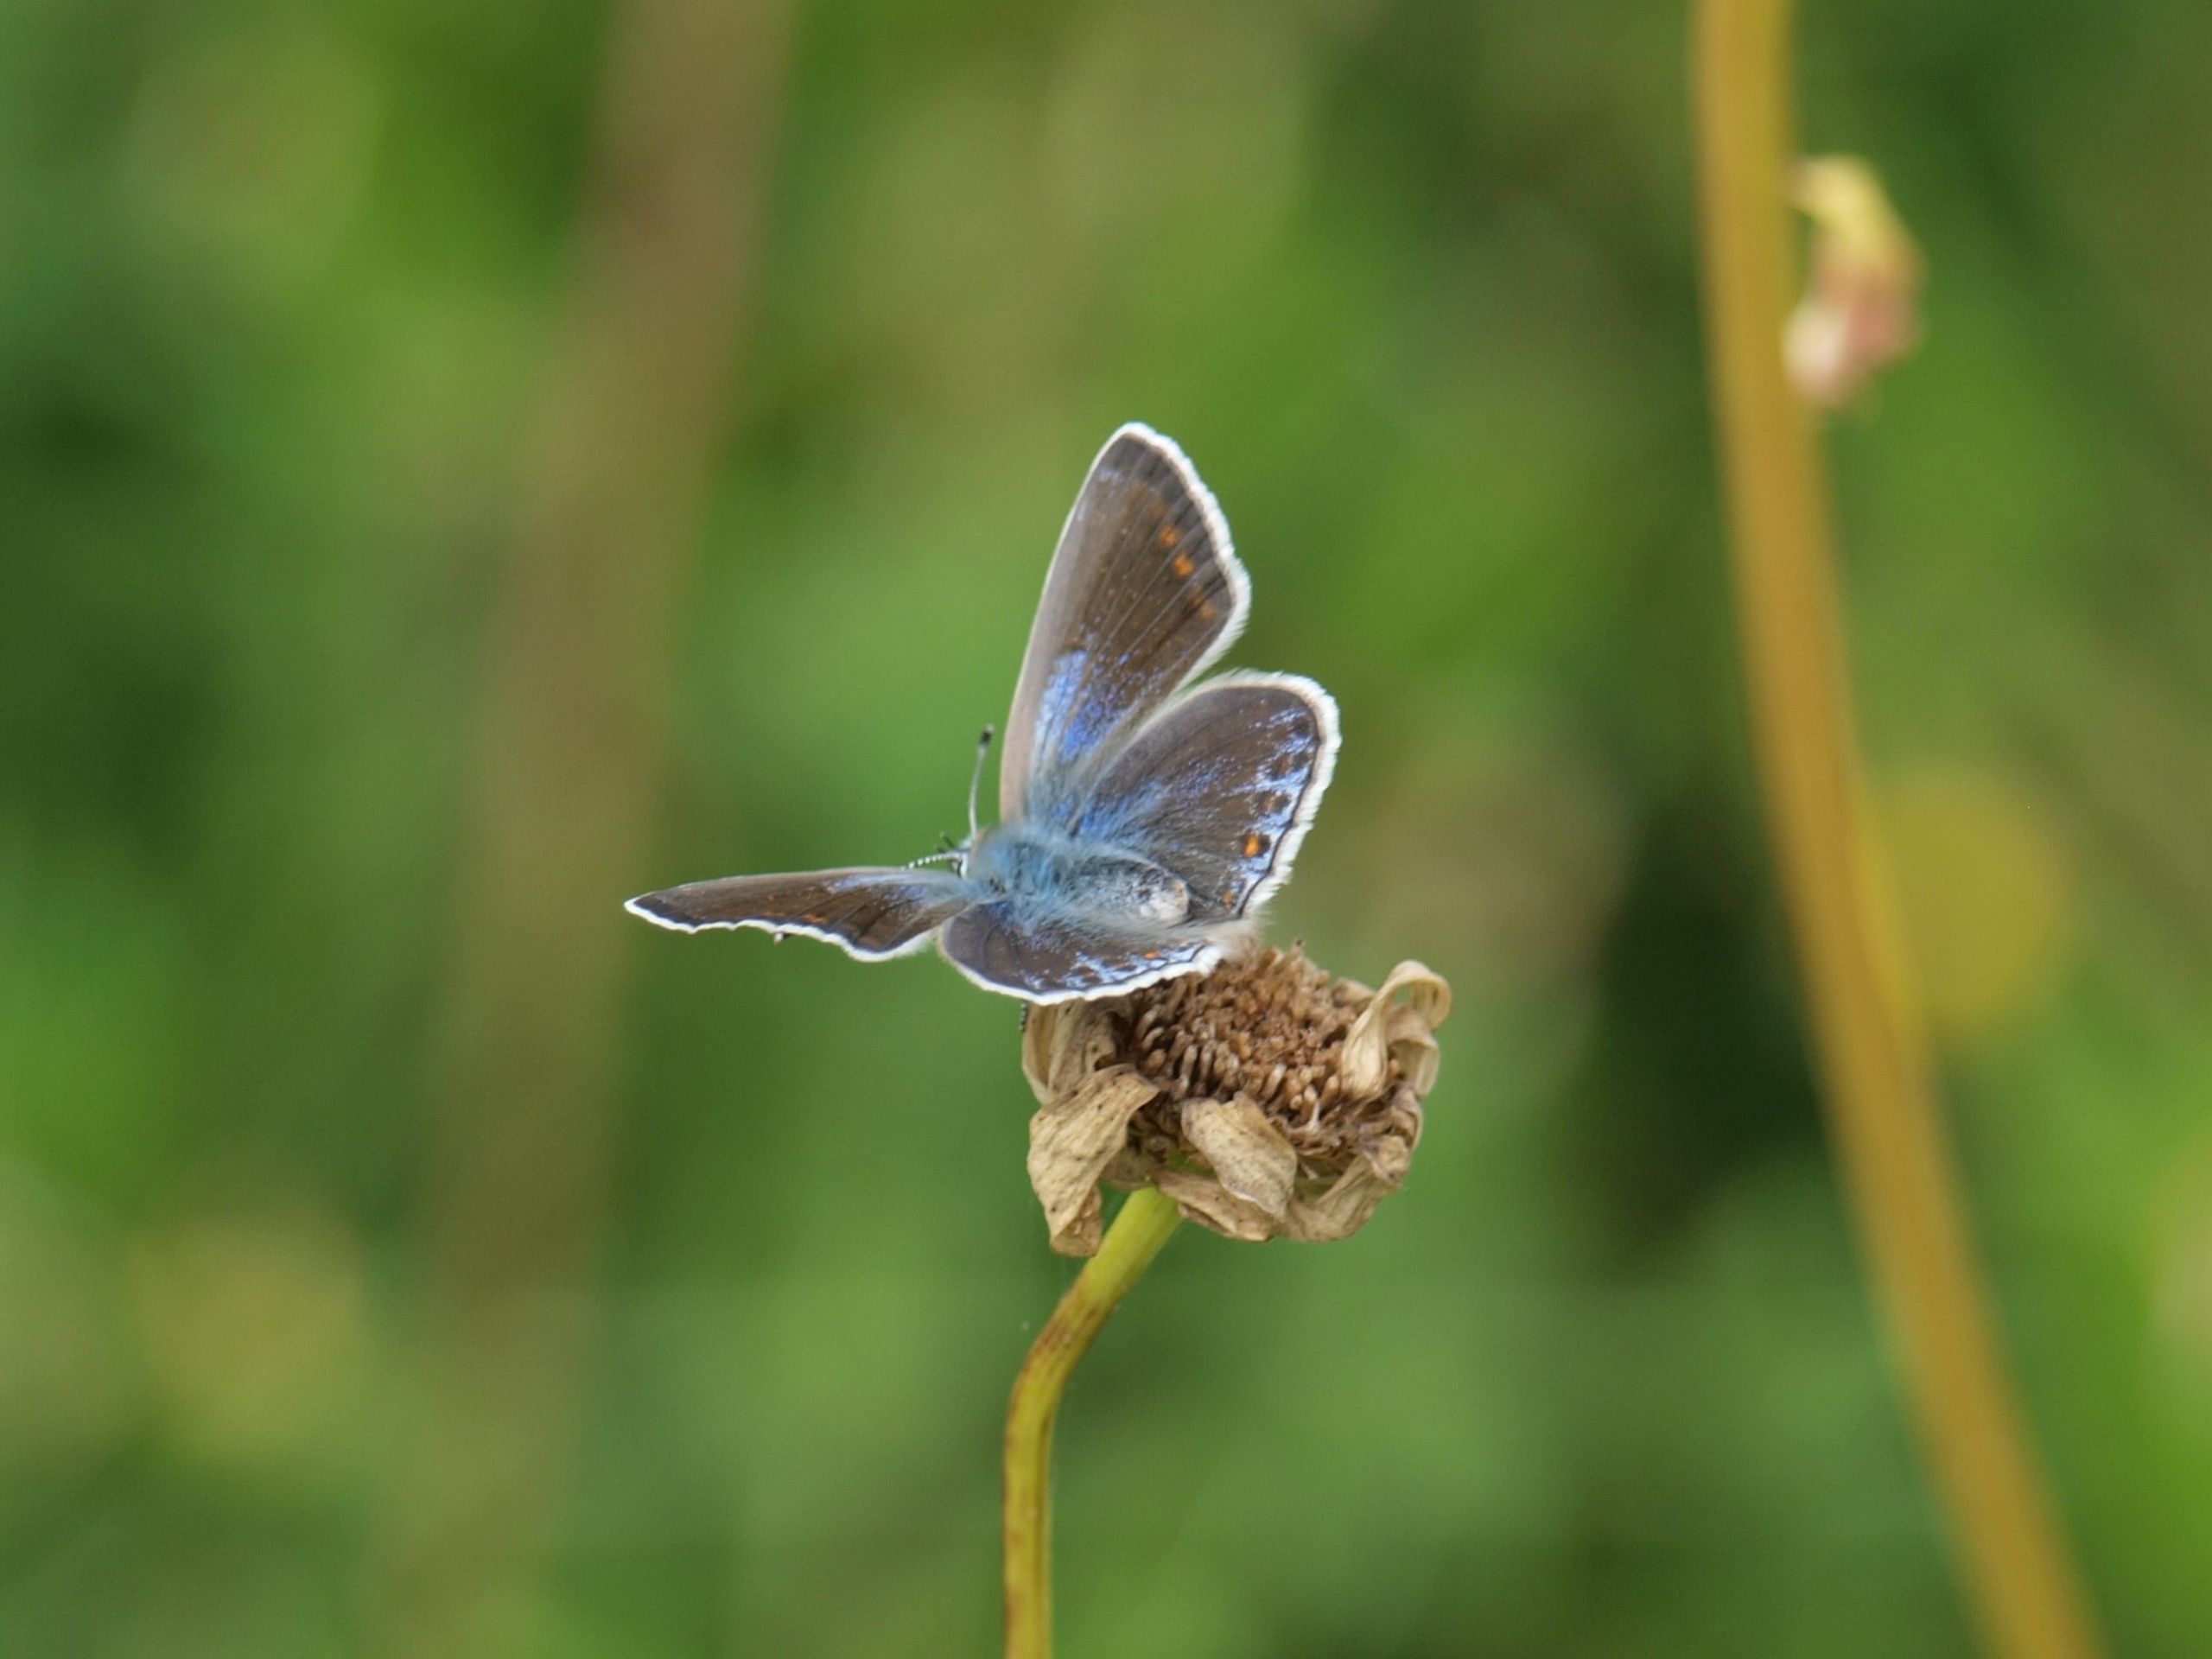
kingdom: Animalia
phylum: Arthropoda
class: Insecta
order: Lepidoptera
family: Lycaenidae
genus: Polyommatus
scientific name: Polyommatus icarus
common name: Almindelig blåfugl
